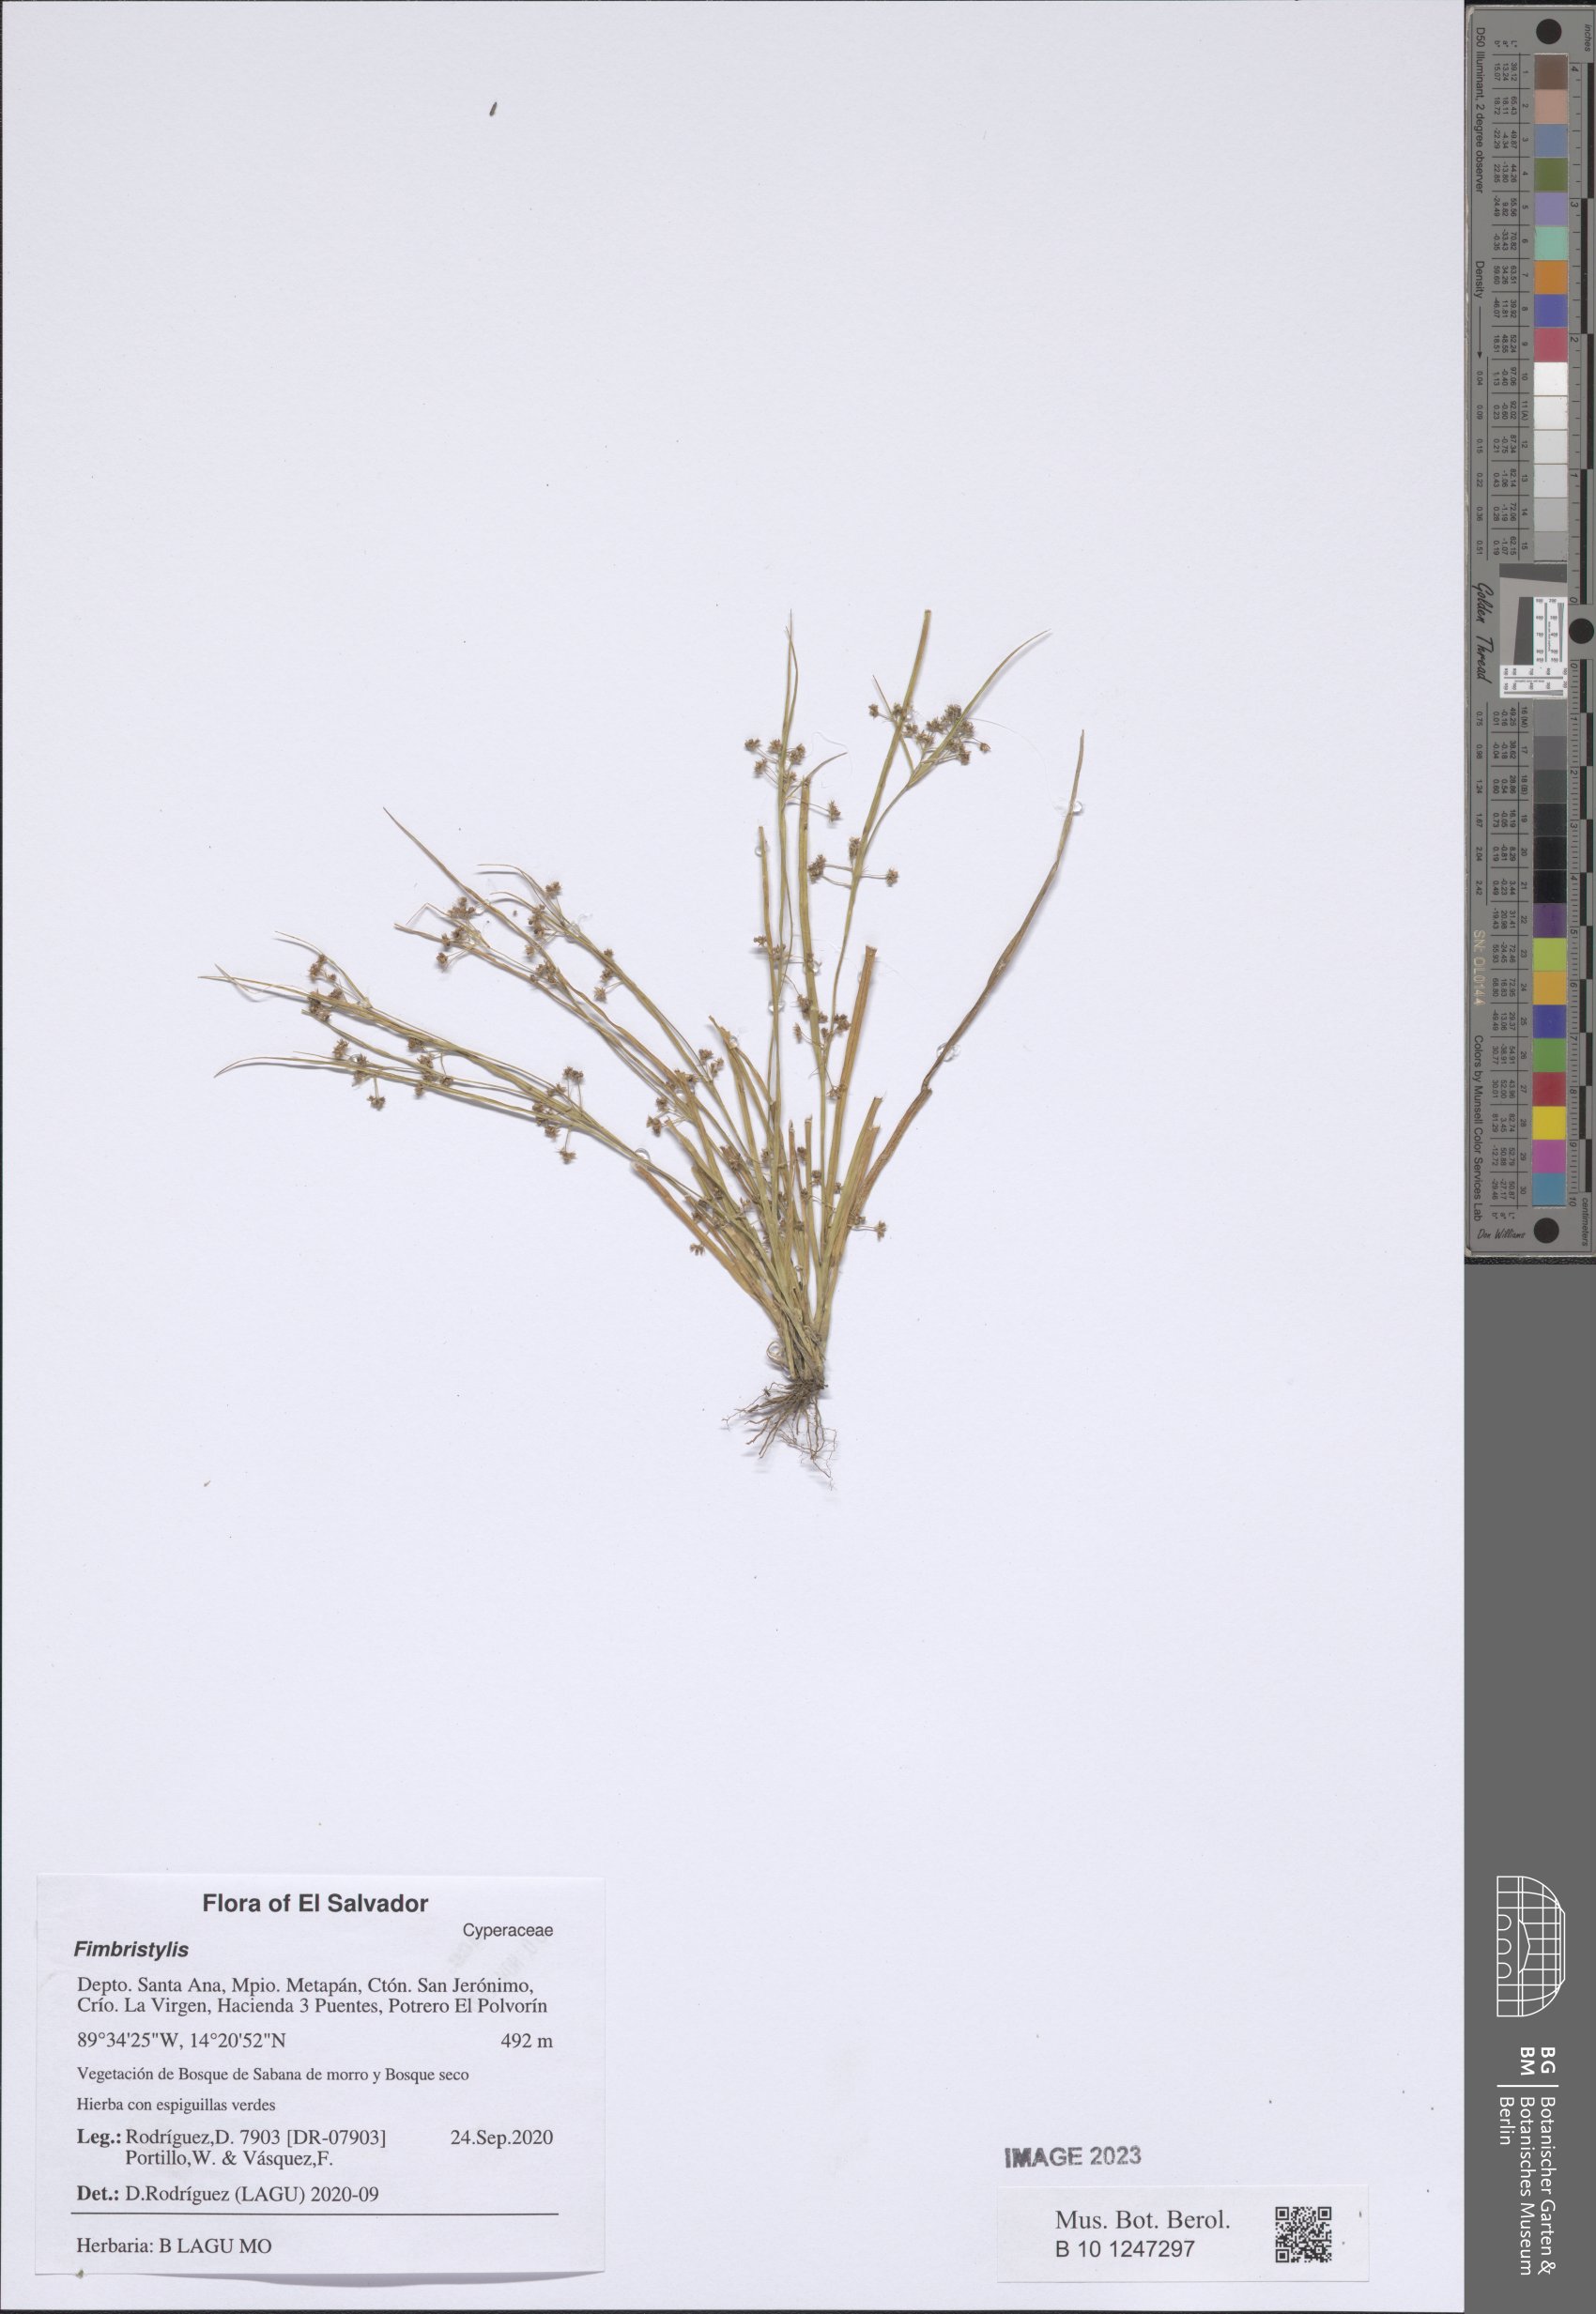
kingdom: Plantae
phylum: Tracheophyta
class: Liliopsida
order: Poales
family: Cyperaceae
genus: Fimbristylis
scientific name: Fimbristylis
